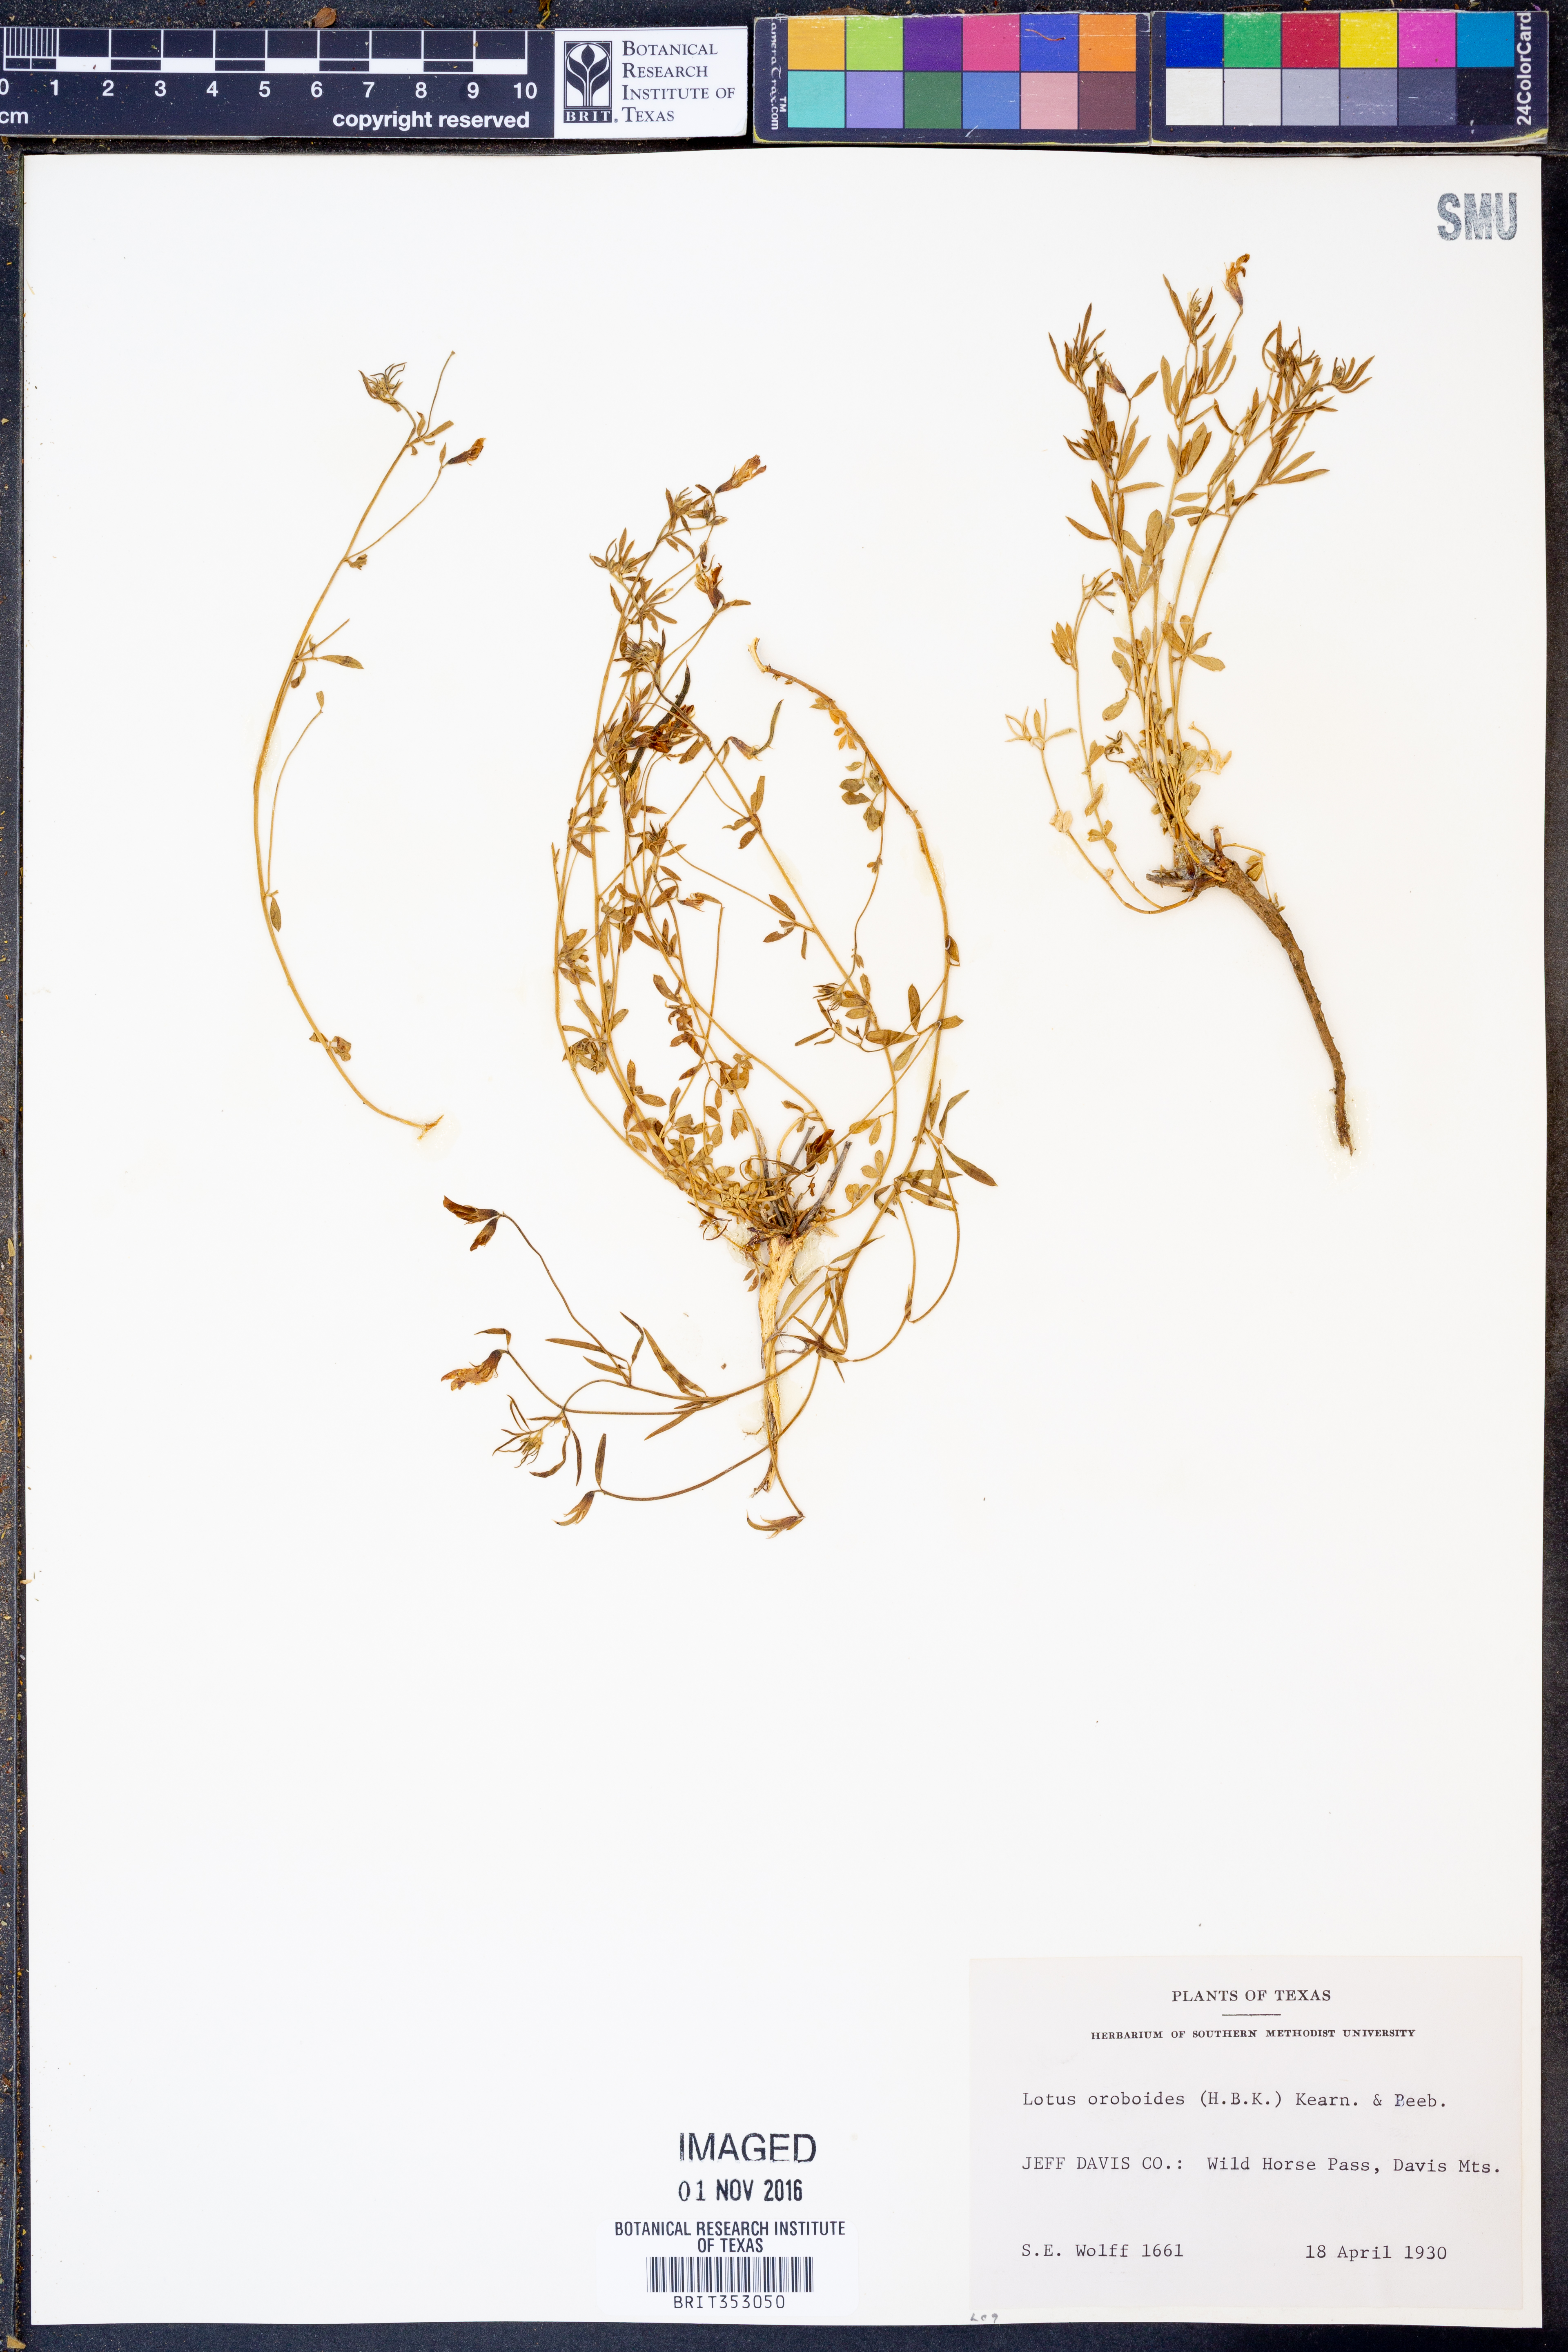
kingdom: Plantae
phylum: Tracheophyta
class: Magnoliopsida
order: Fabales
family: Fabaceae
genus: Acmispon
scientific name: Acmispon oroboides
